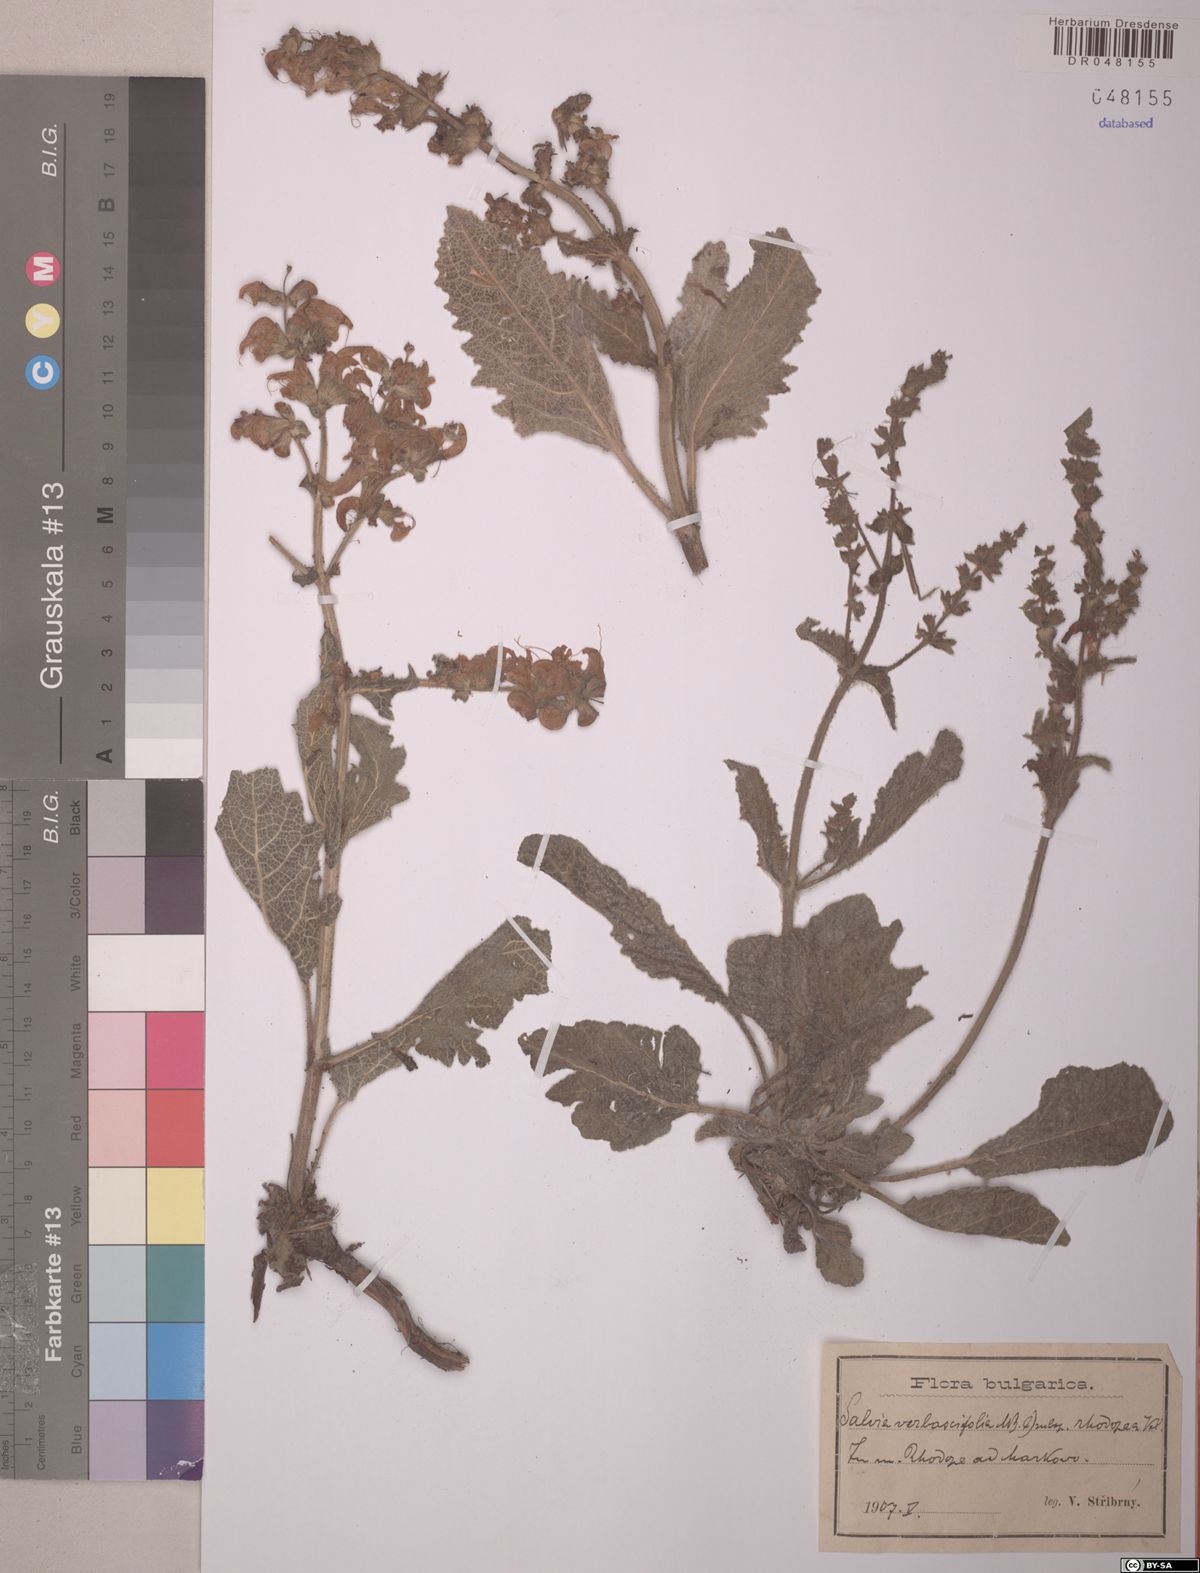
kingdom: Plantae
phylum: Tracheophyta
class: Magnoliopsida
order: Lamiales
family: Lamiaceae
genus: Salvia
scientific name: Salvia verbascifolia
